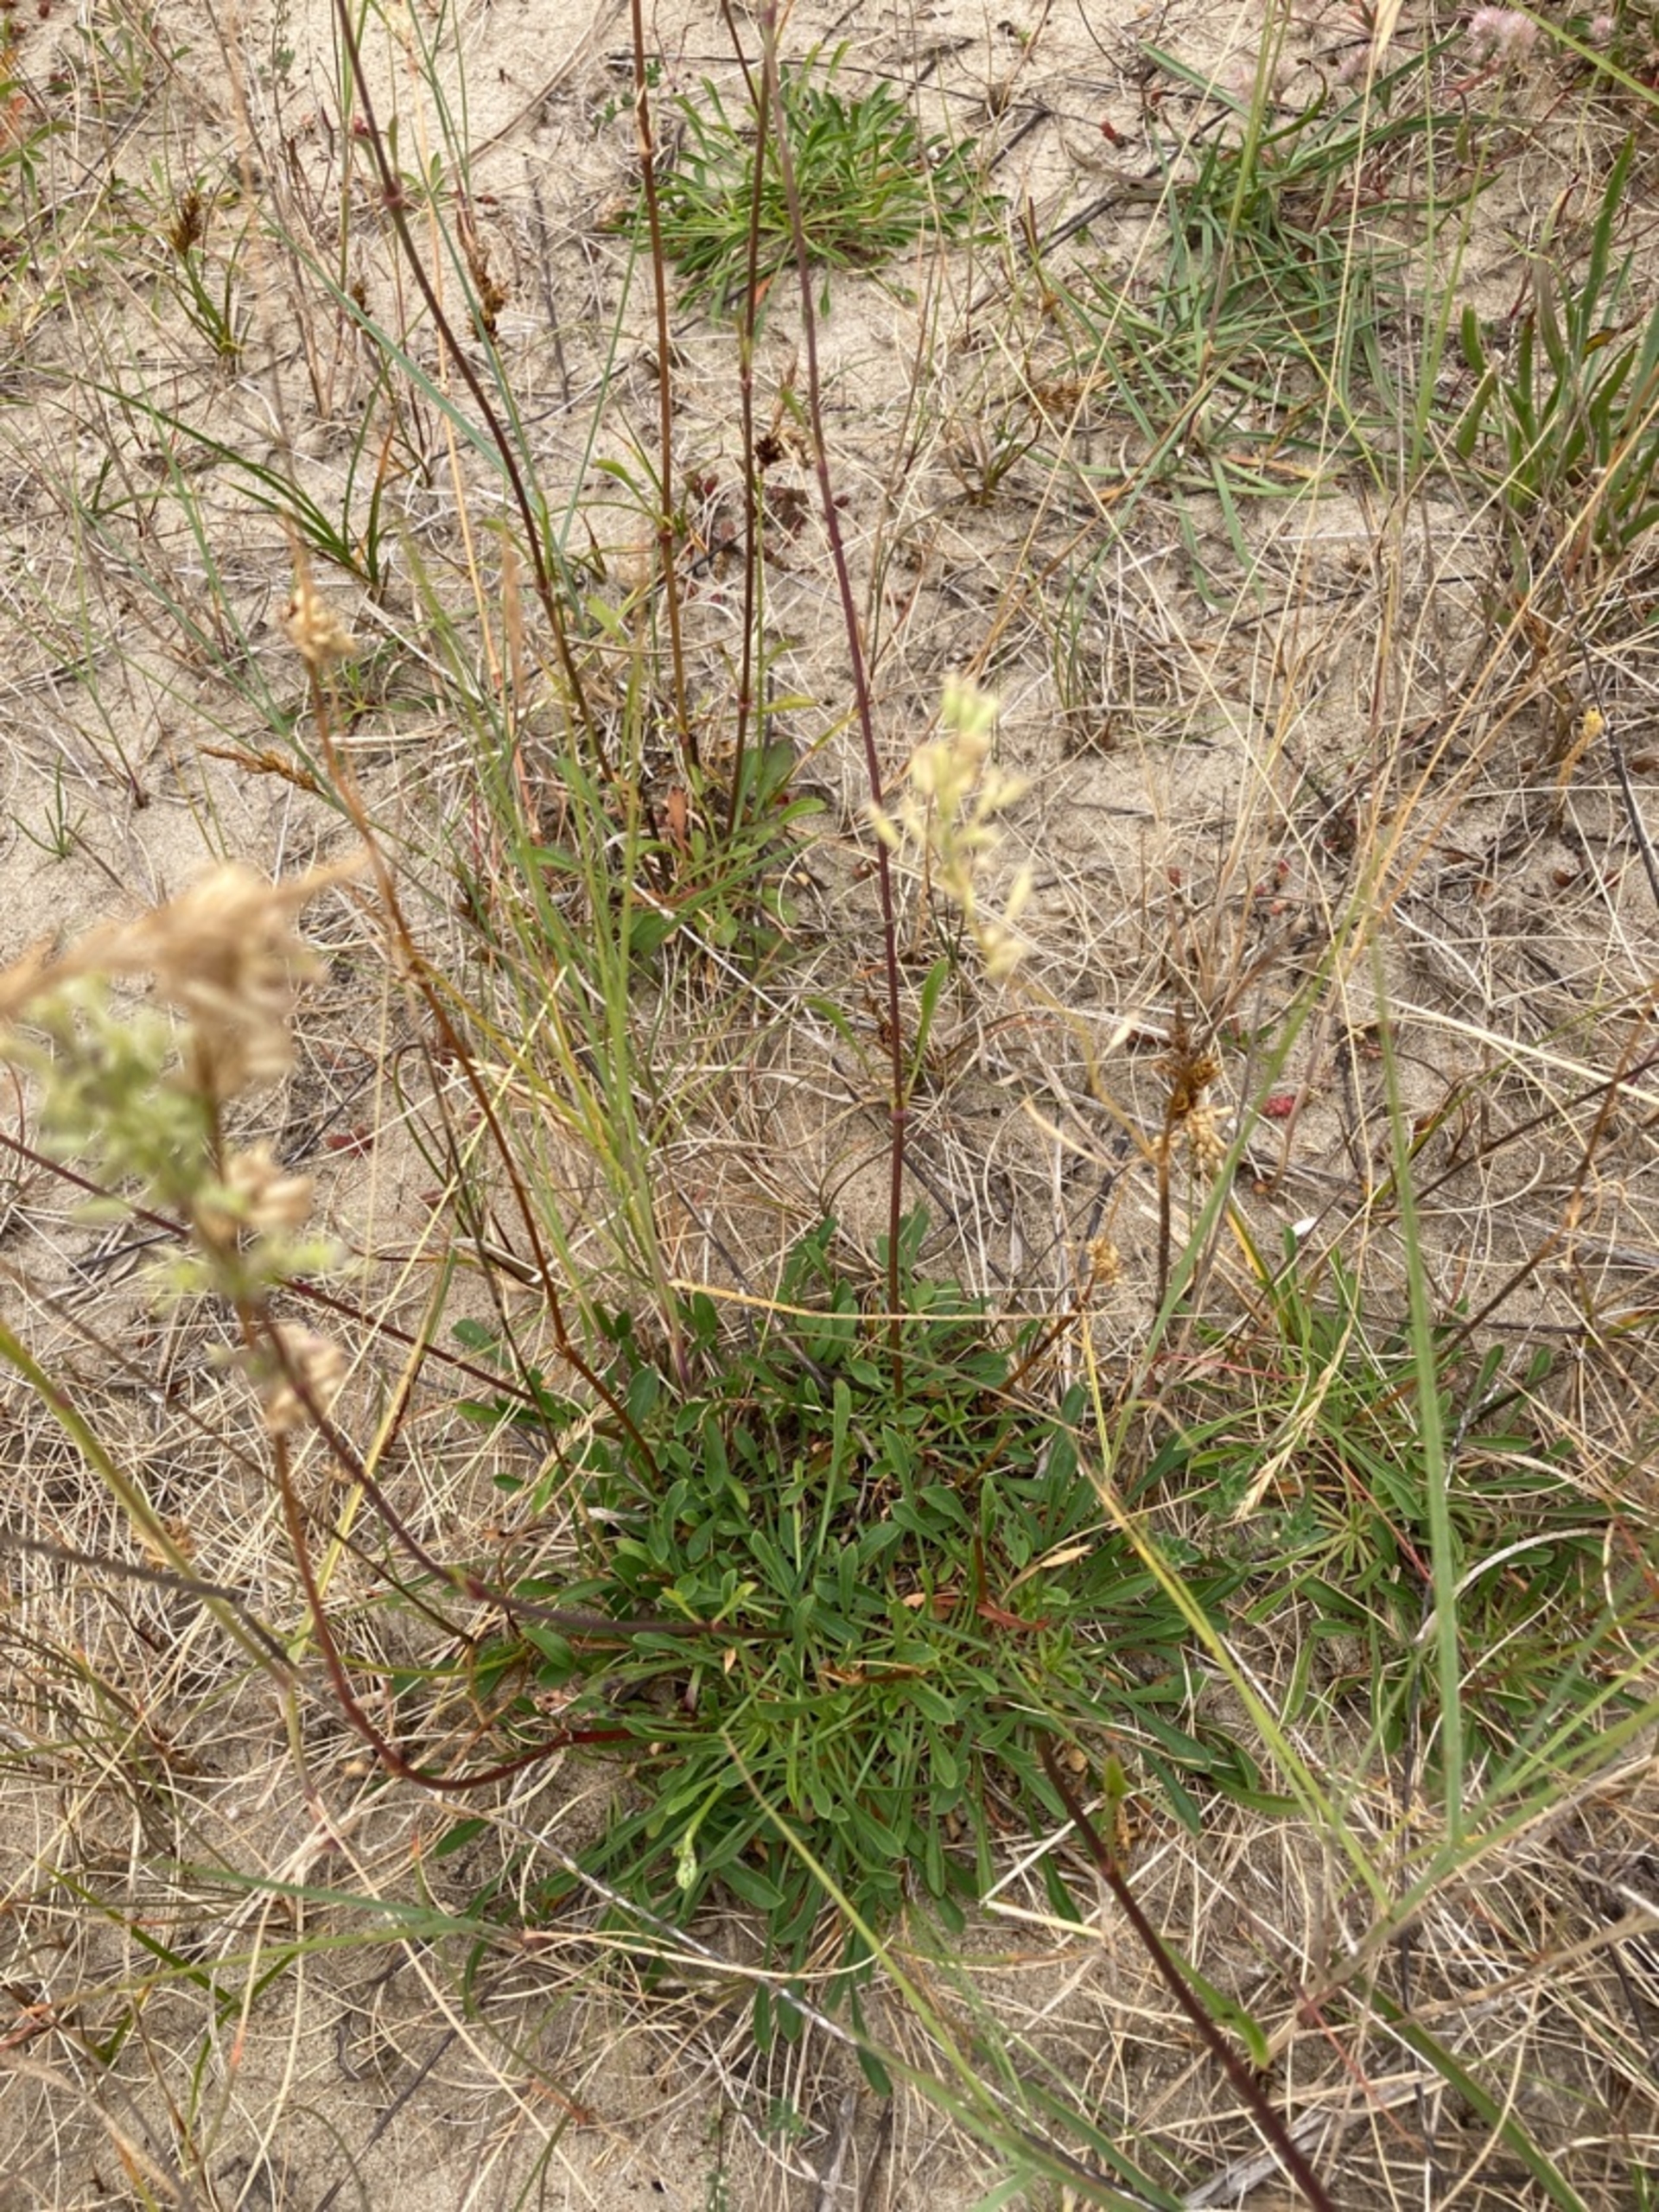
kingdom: Plantae
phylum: Tracheophyta
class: Magnoliopsida
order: Caryophyllales
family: Caryophyllaceae
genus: Silene
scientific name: Silene otites
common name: Klit-limurt
